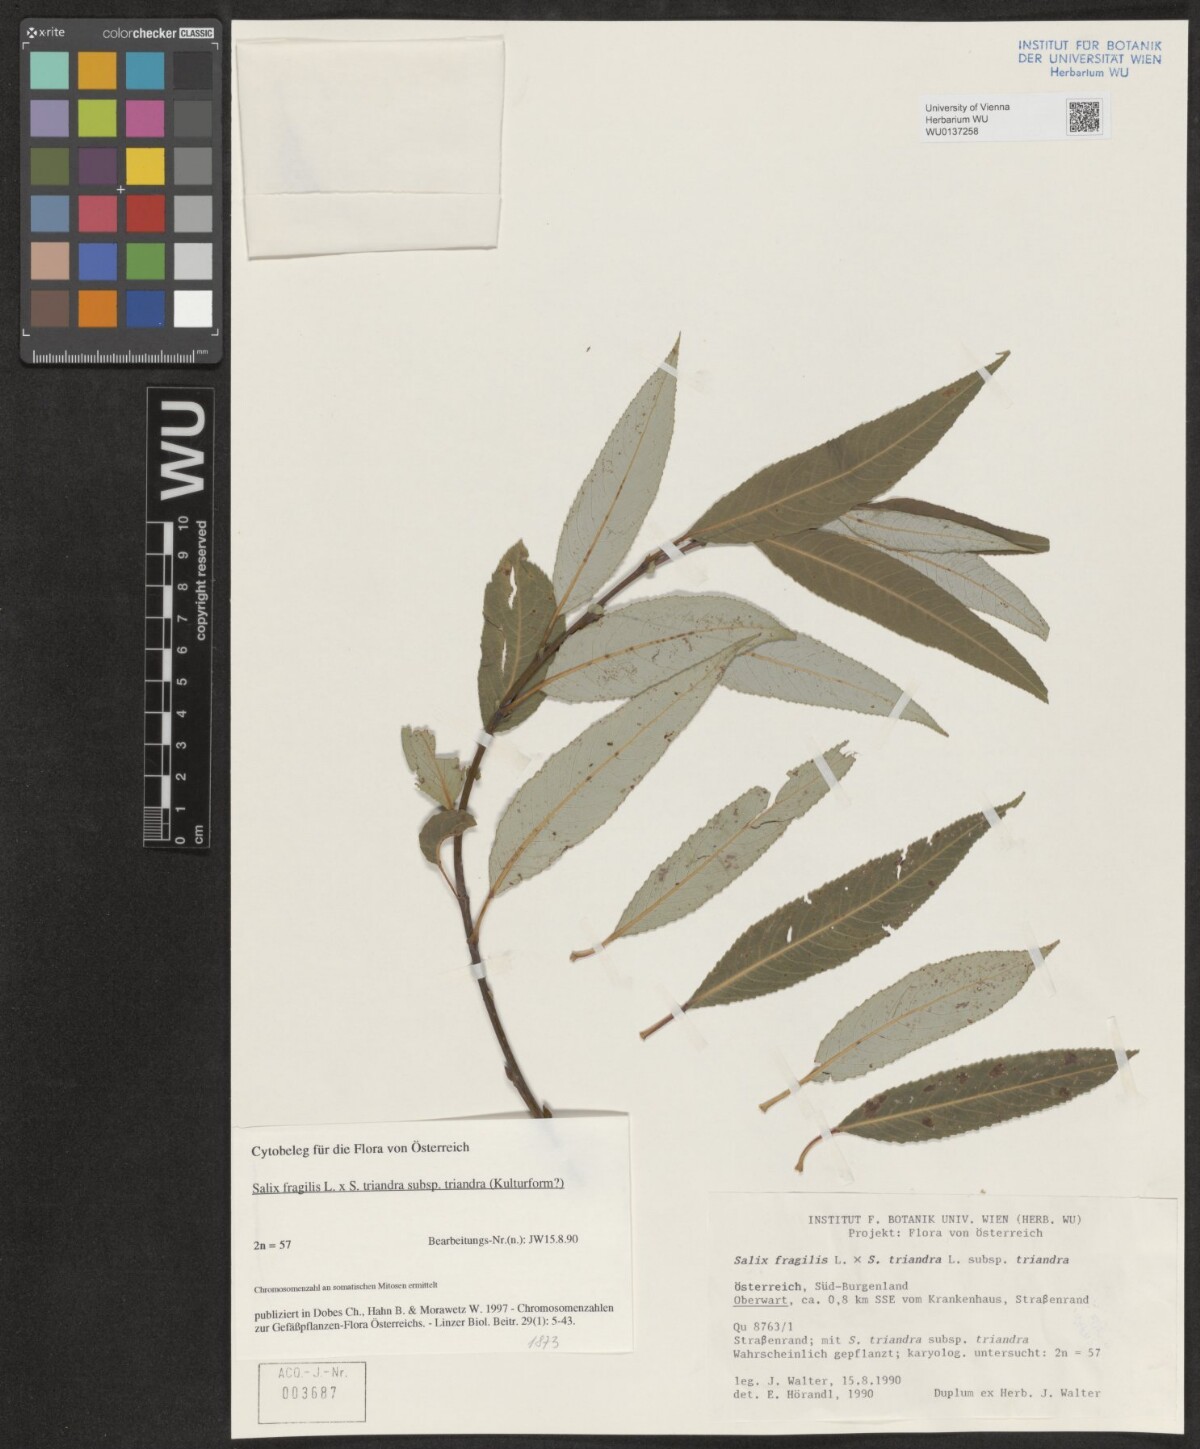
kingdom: Plantae
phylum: Tracheophyta
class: Magnoliopsida
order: Malpighiales
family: Salicaceae
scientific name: Salicaceae
